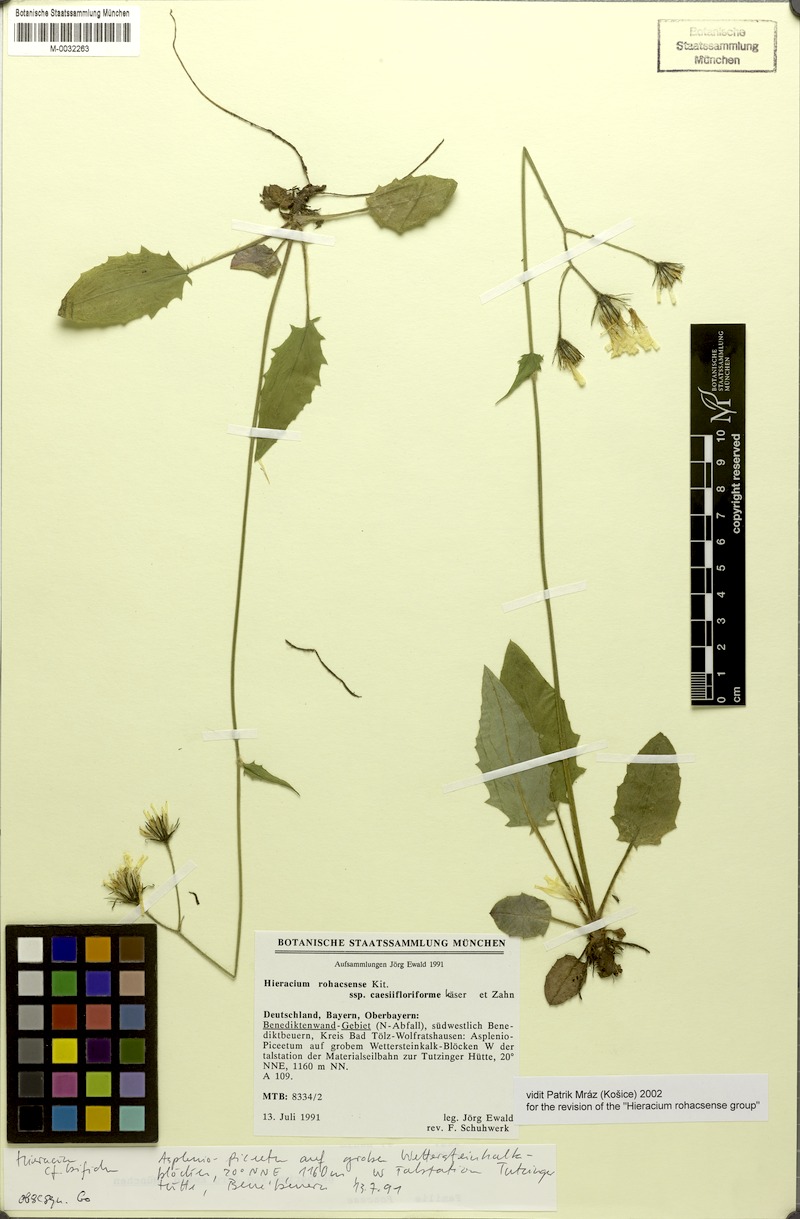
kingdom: Plantae
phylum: Tracheophyta
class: Magnoliopsida
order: Asterales
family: Asteraceae
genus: Hieracium
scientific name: Hieracium rohacsense
